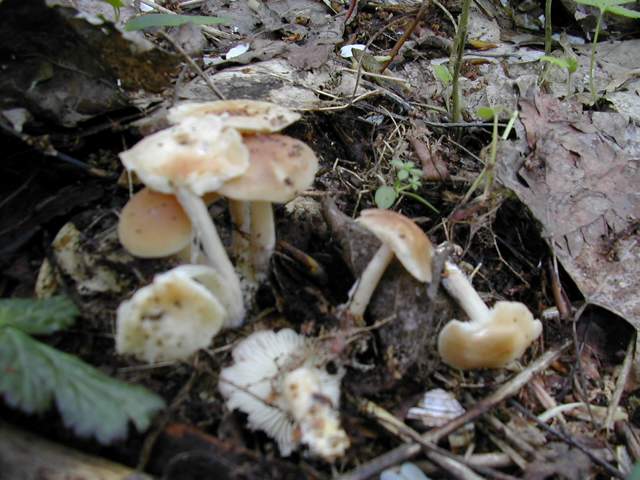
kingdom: Fungi
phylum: Basidiomycota
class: Agaricomycetes
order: Agaricales
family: Omphalotaceae
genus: Gymnopus
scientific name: Gymnopus hariolorum
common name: hvidkåls-fladhat
